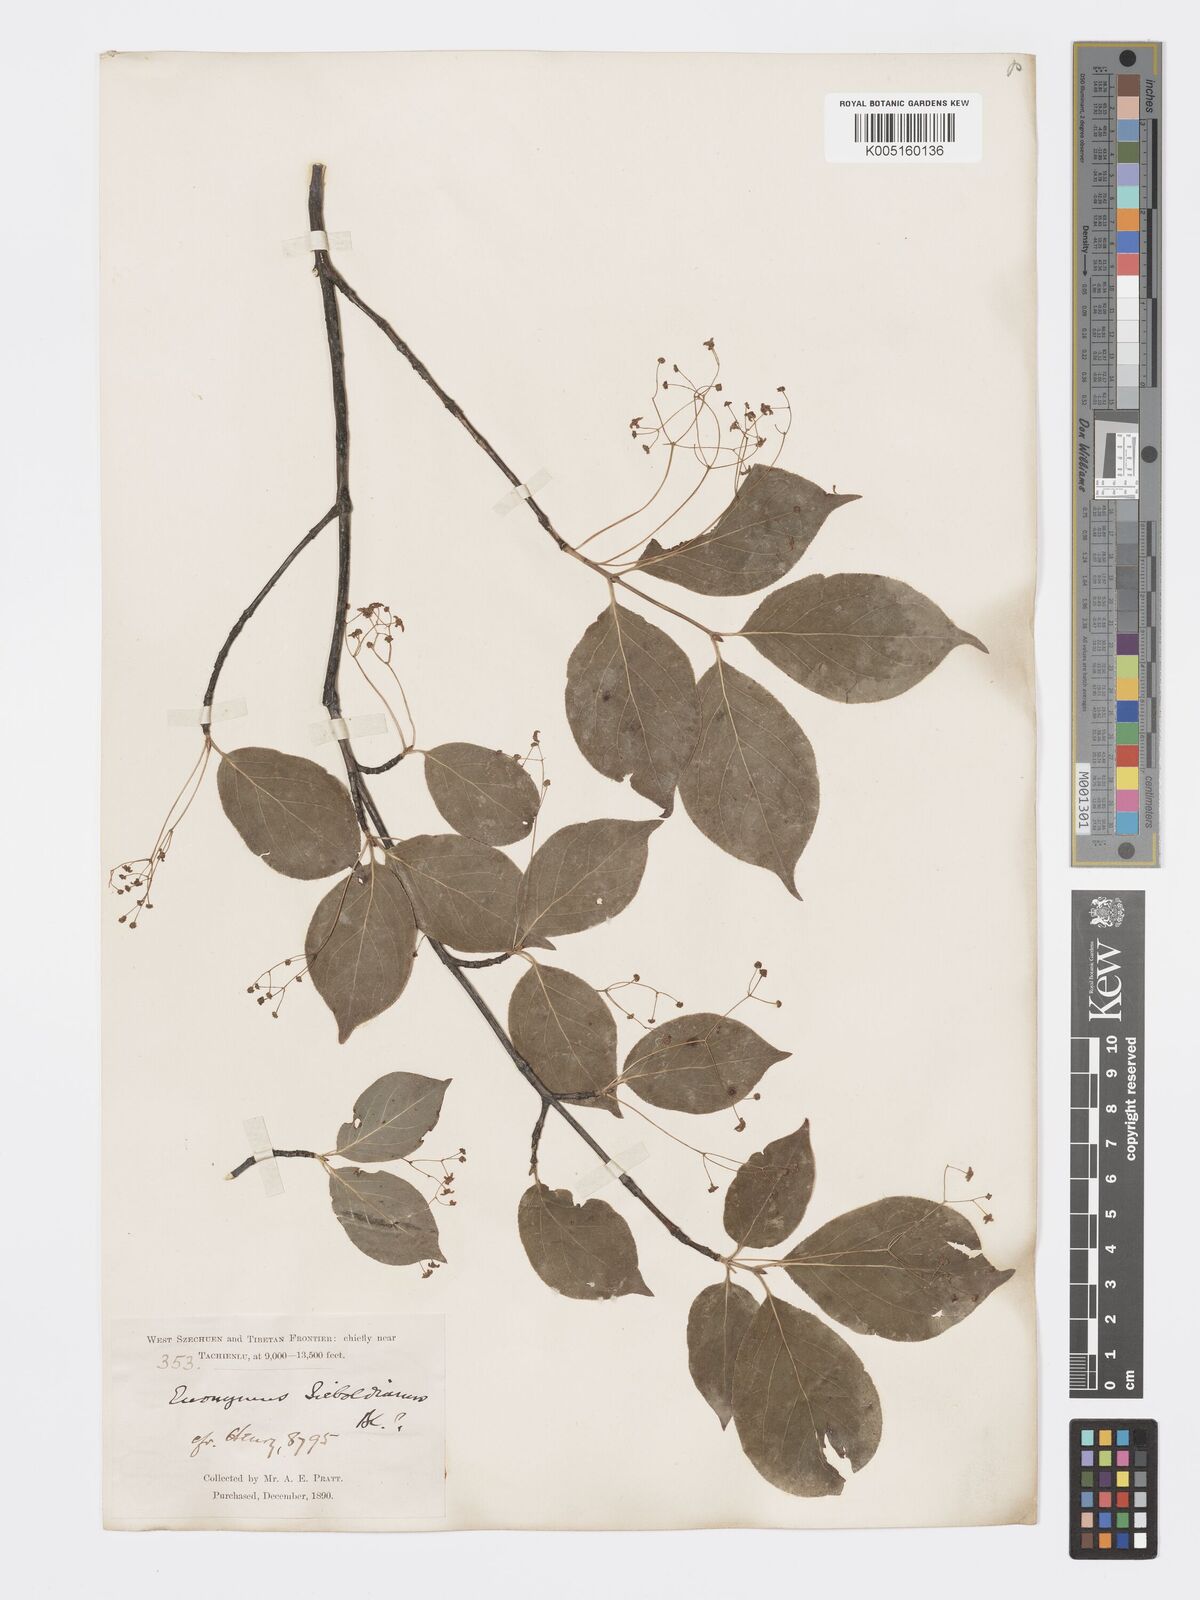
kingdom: Plantae
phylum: Tracheophyta
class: Magnoliopsida
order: Celastrales
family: Celastraceae
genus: Euonymus
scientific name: Euonymus frigidus
